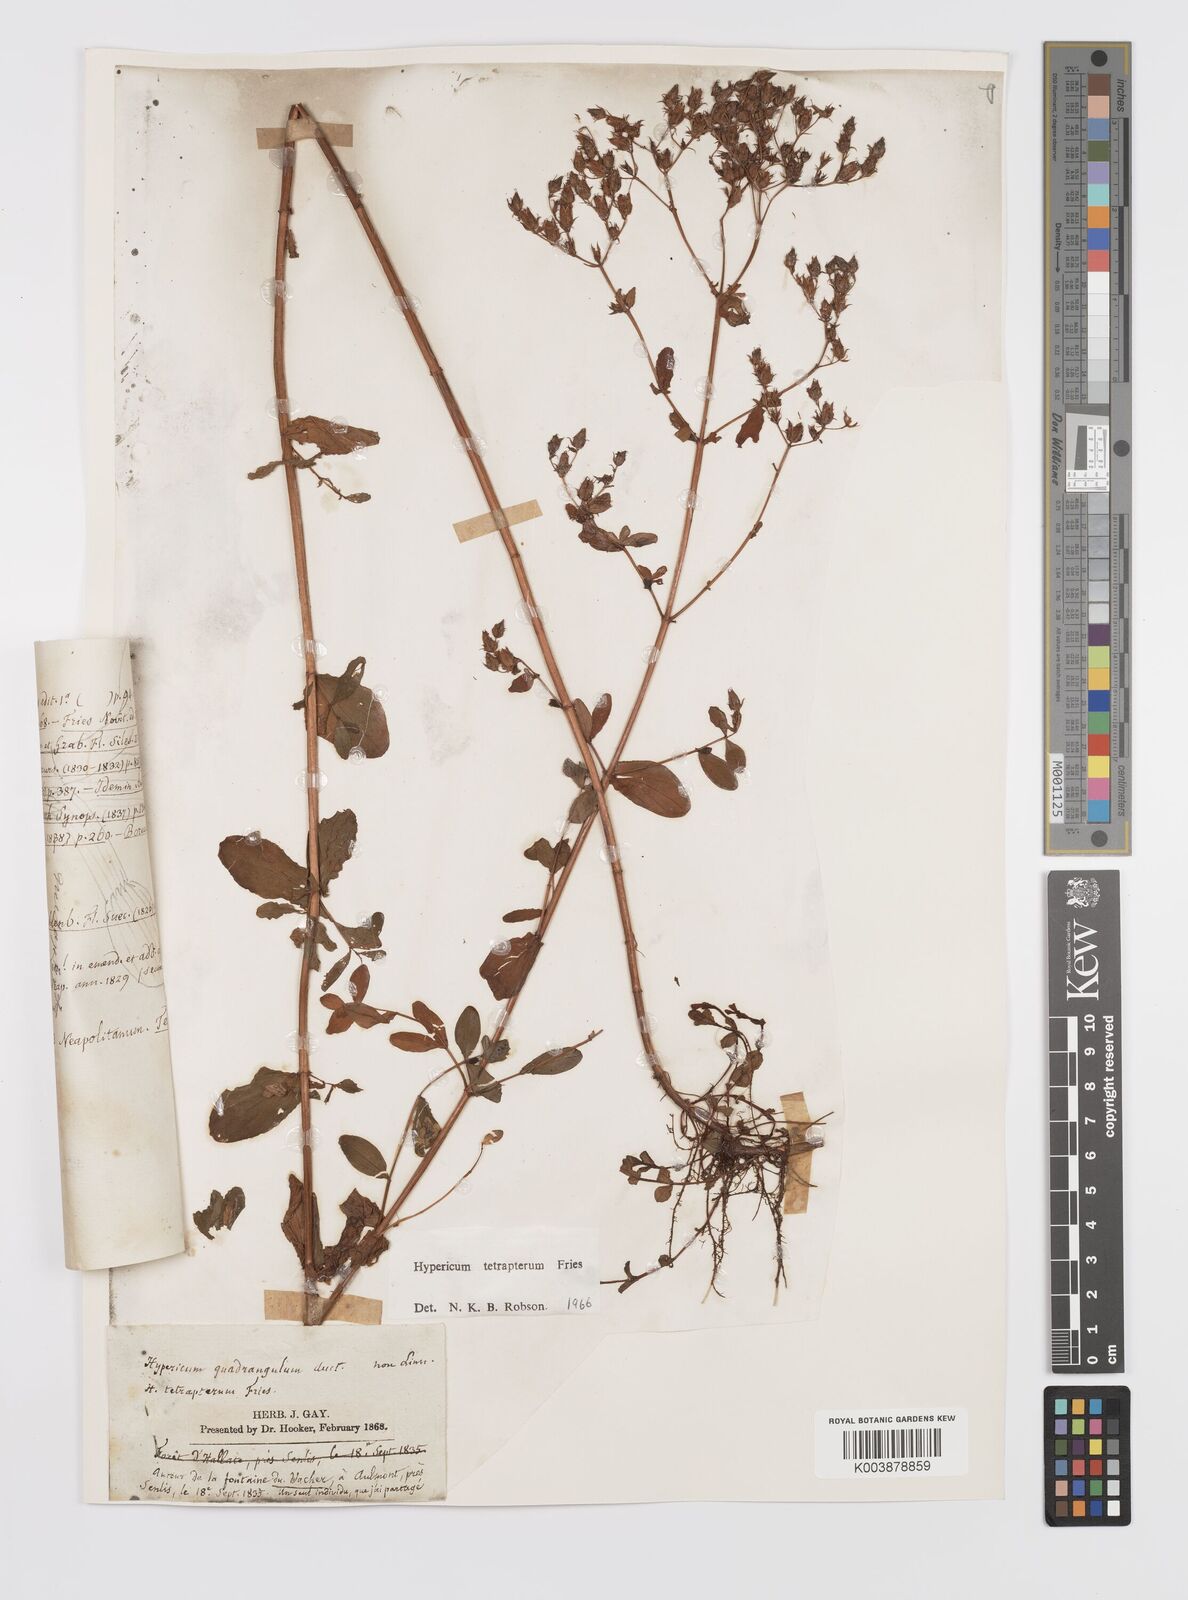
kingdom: Plantae
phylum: Tracheophyta
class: Magnoliopsida
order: Malpighiales
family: Hypericaceae
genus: Hypericum
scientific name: Hypericum tetrapterum
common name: Square-stalked st. john's-wort
